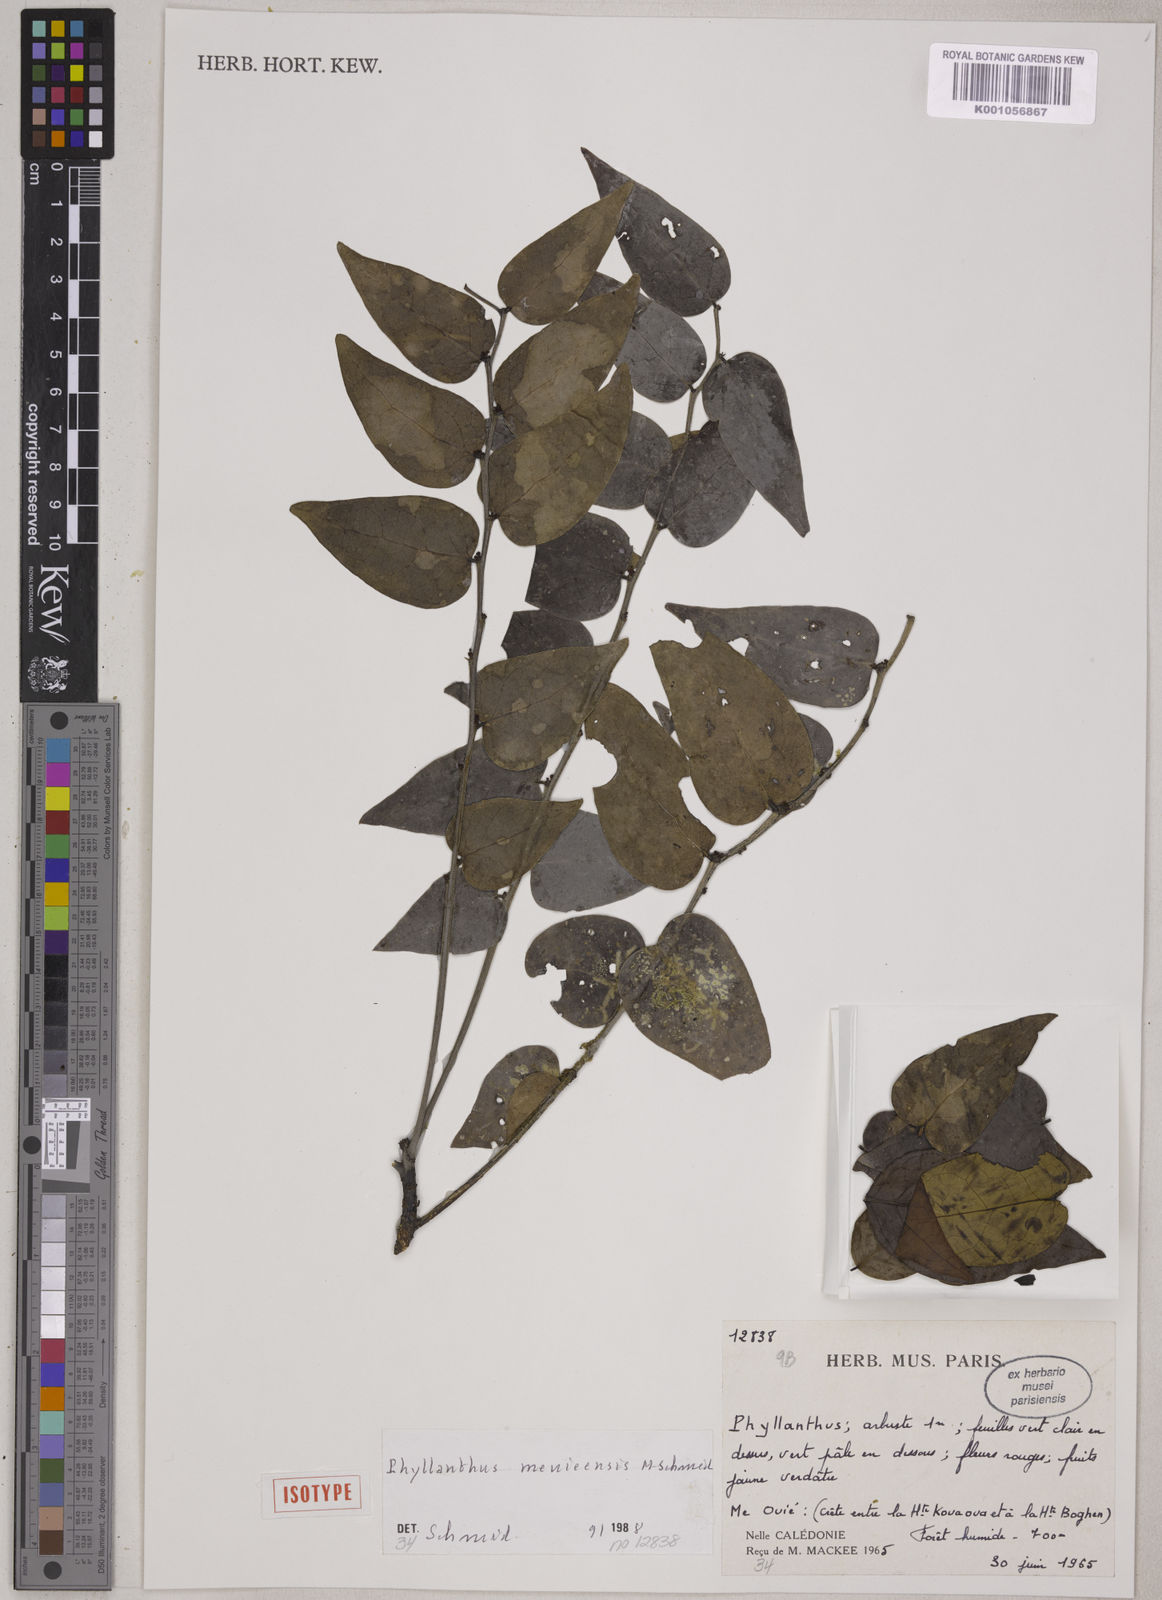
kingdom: Plantae
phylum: Tracheophyta
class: Magnoliopsida
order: Malpighiales
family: Phyllanthaceae
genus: Phyllanthus
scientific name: Phyllanthus meuieensis
